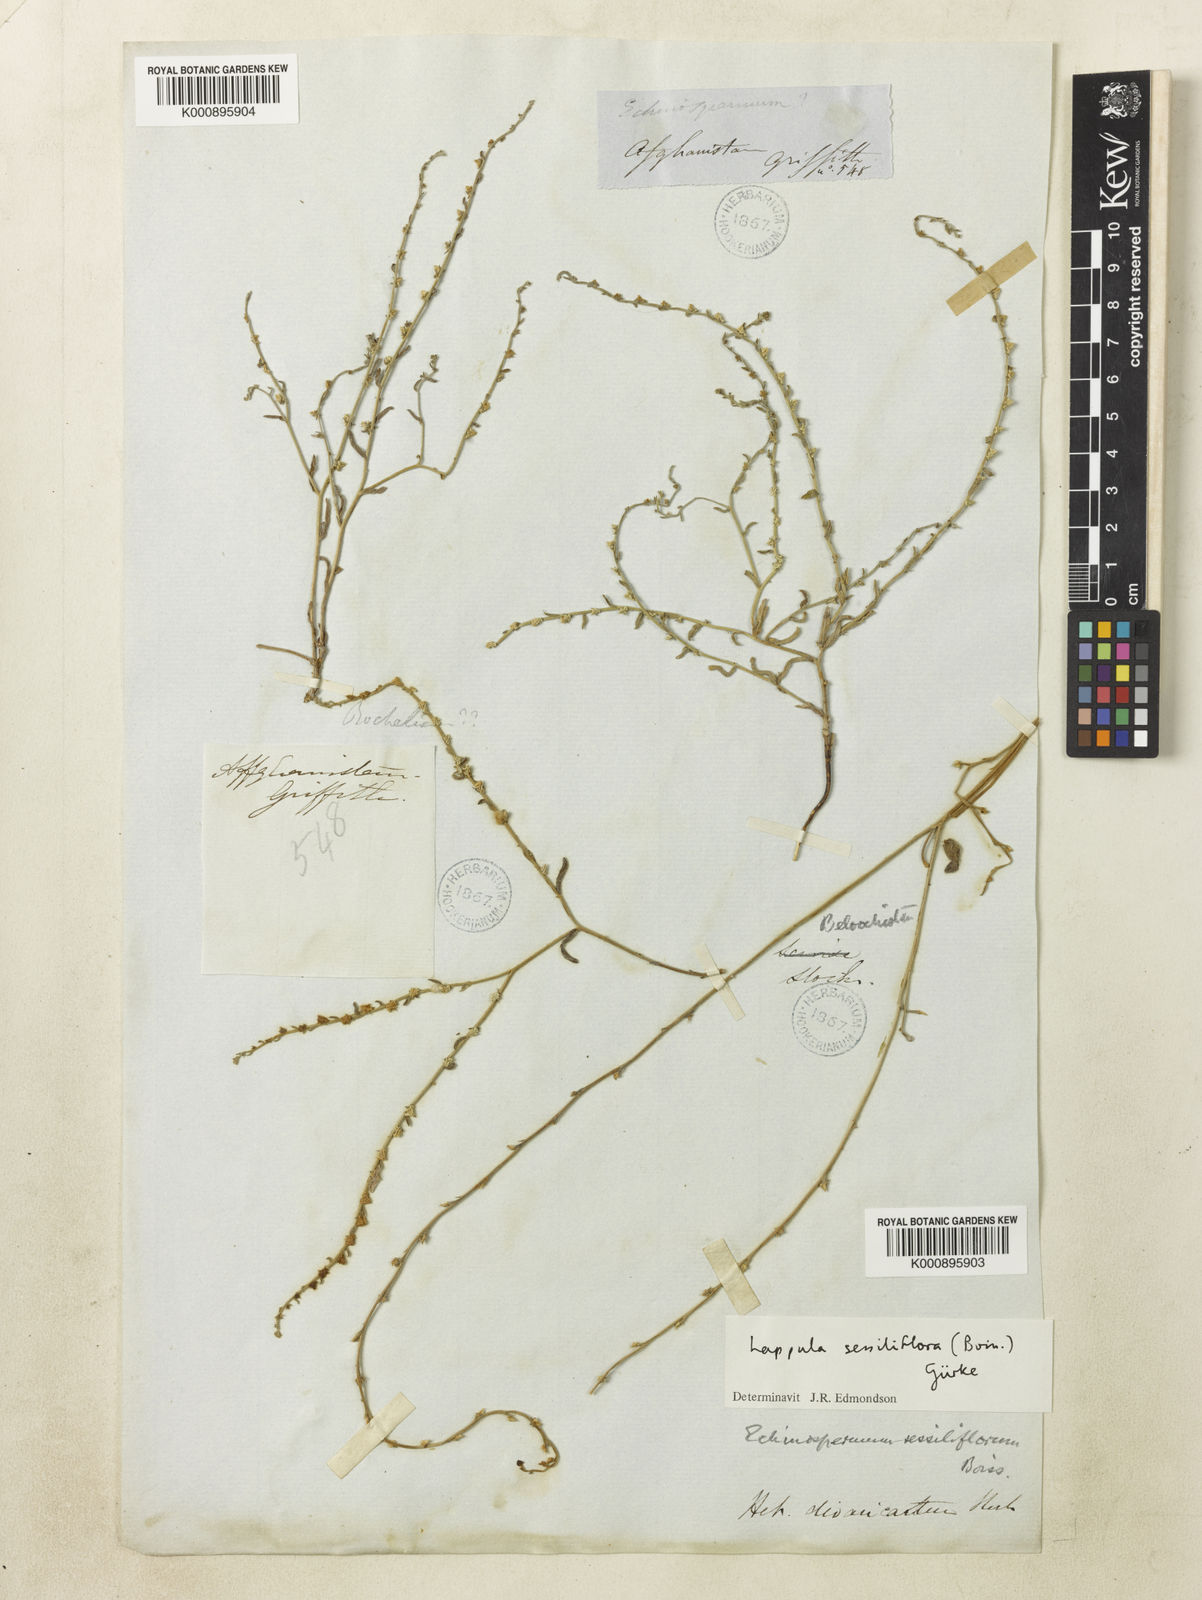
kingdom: Plantae
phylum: Tracheophyta
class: Magnoliopsida
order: Boraginales
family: Boraginaceae
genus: Lappula
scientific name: Lappula
